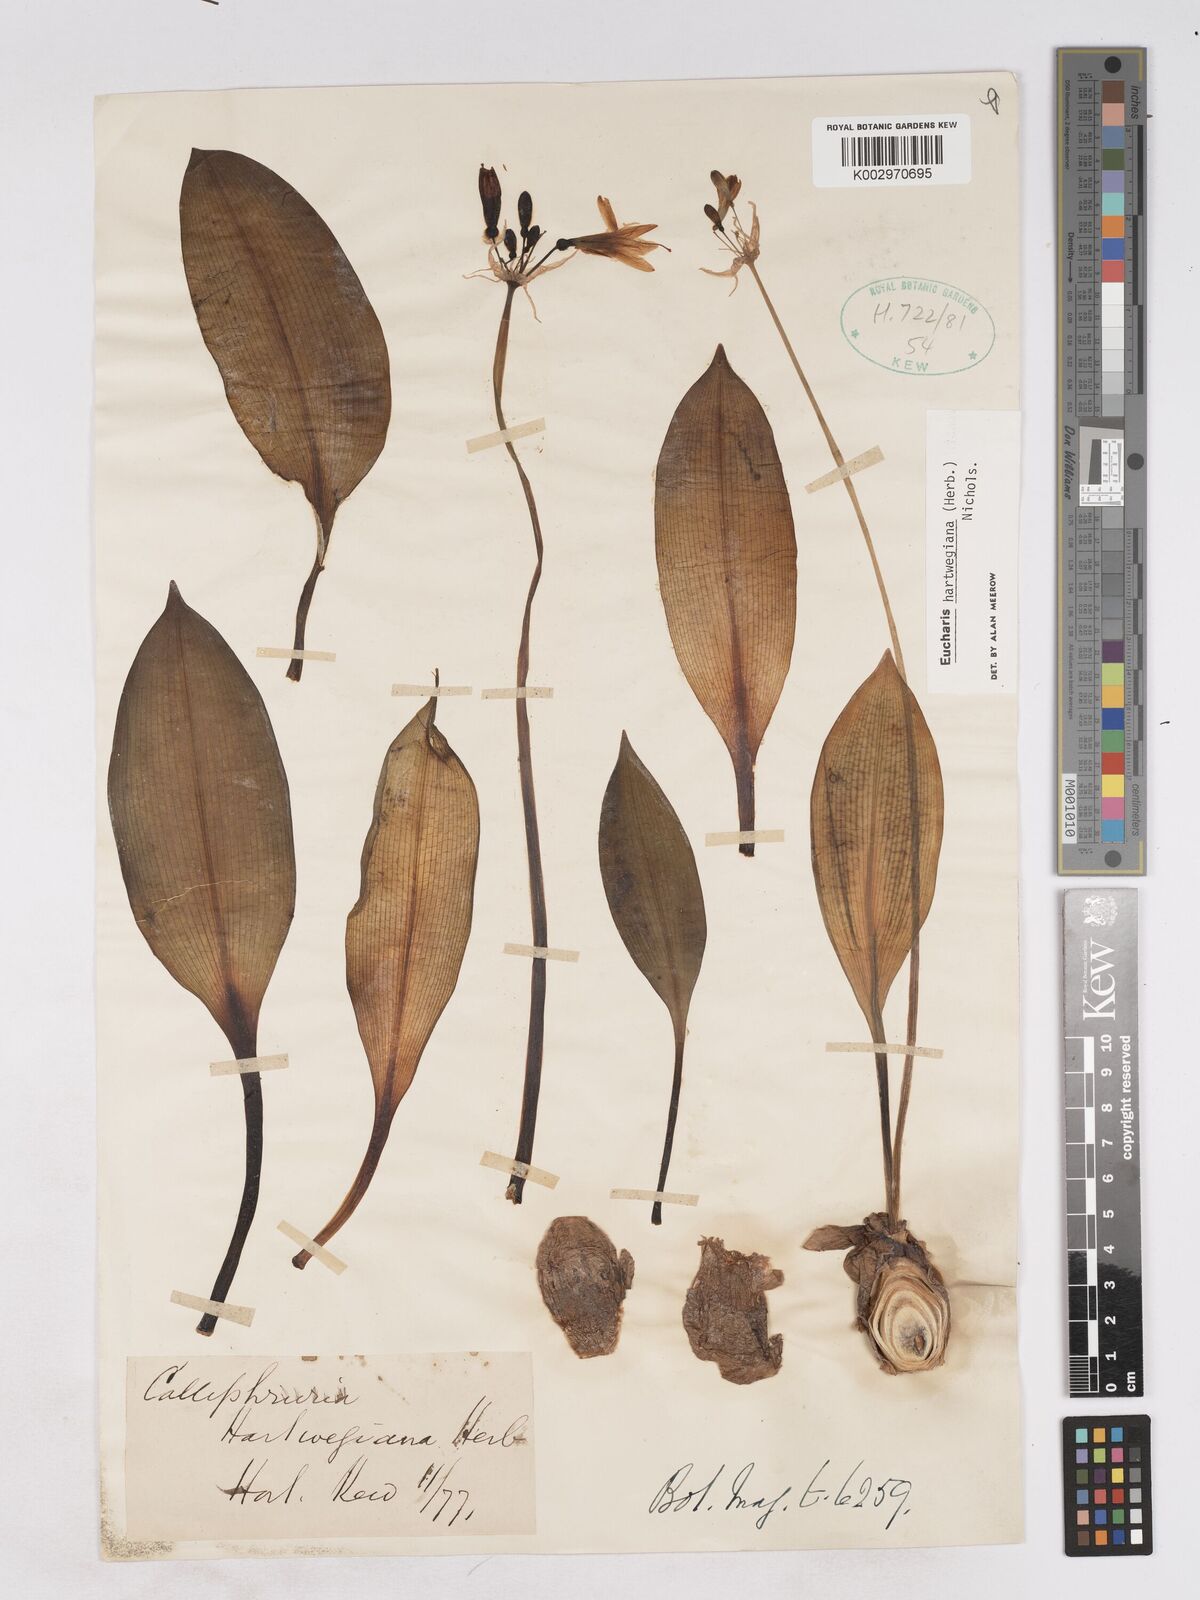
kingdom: Plantae
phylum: Tracheophyta
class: Liliopsida
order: Asparagales
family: Amaryllidaceae
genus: Urceolina
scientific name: Urceolina hartwegiana
